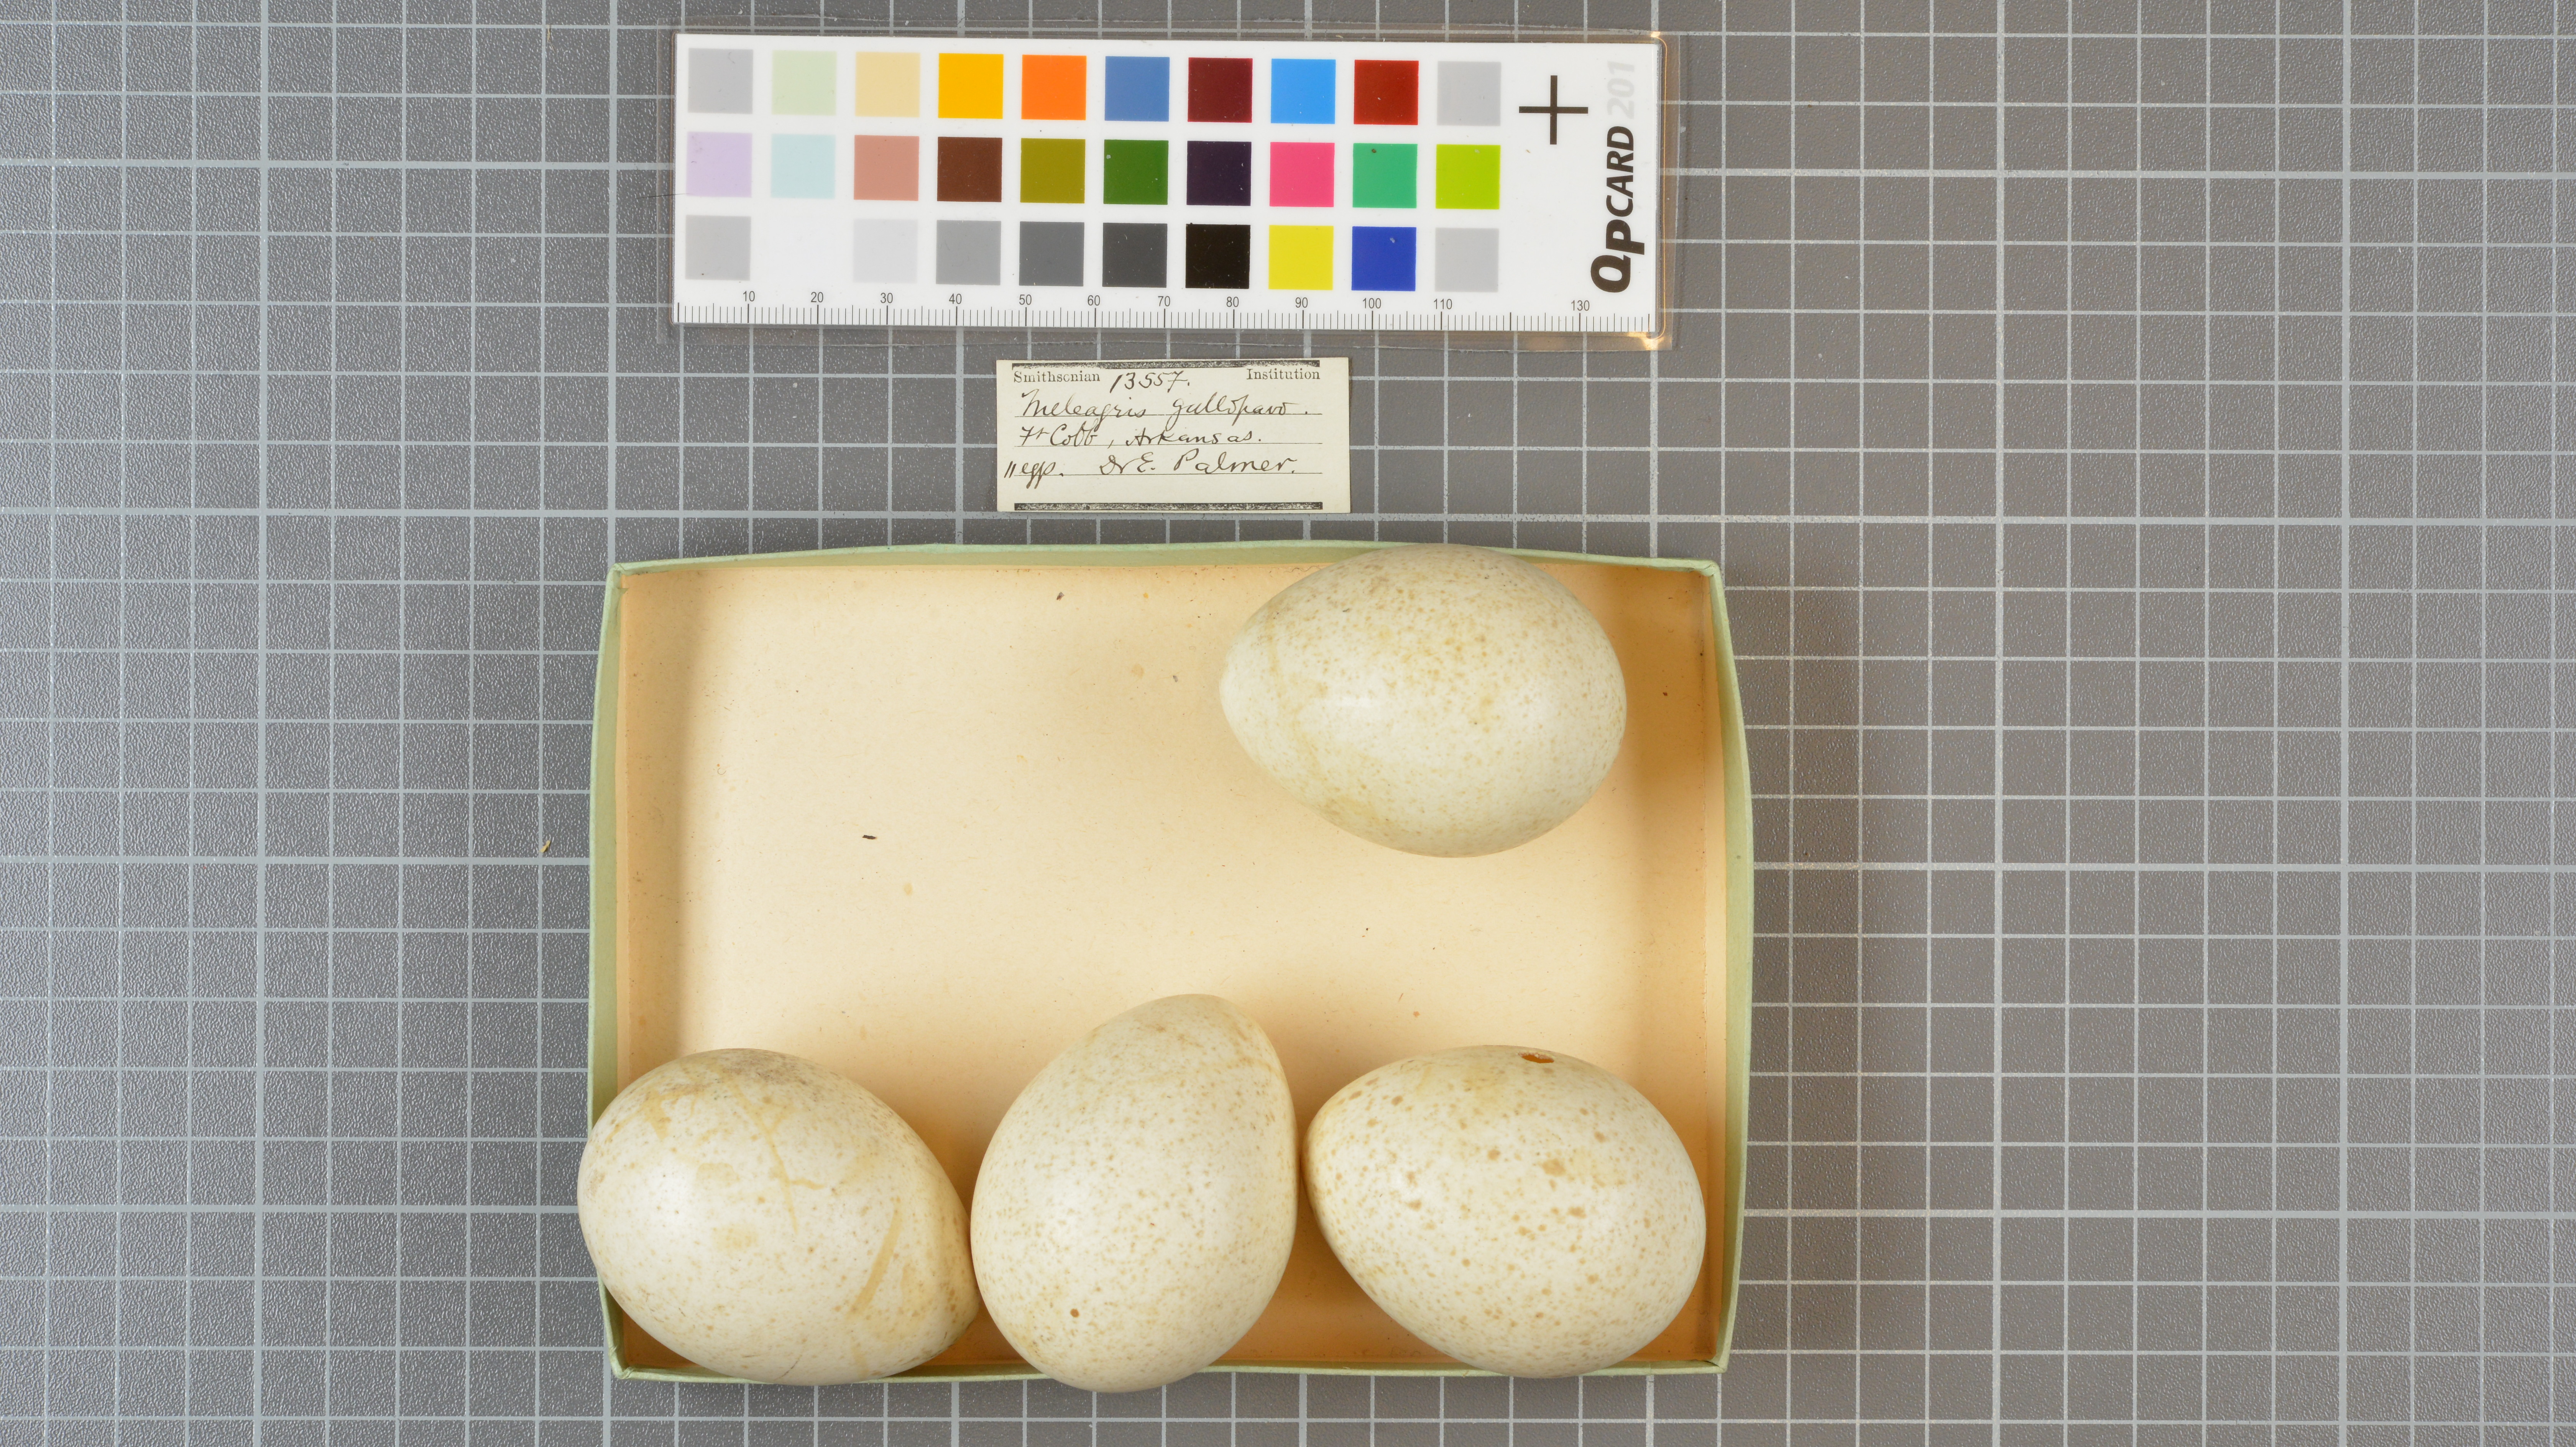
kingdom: Animalia
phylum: Chordata
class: Aves
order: Galliformes
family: Phasianidae
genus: Meleagris
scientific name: Meleagris gallopavo
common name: Wild turkey
